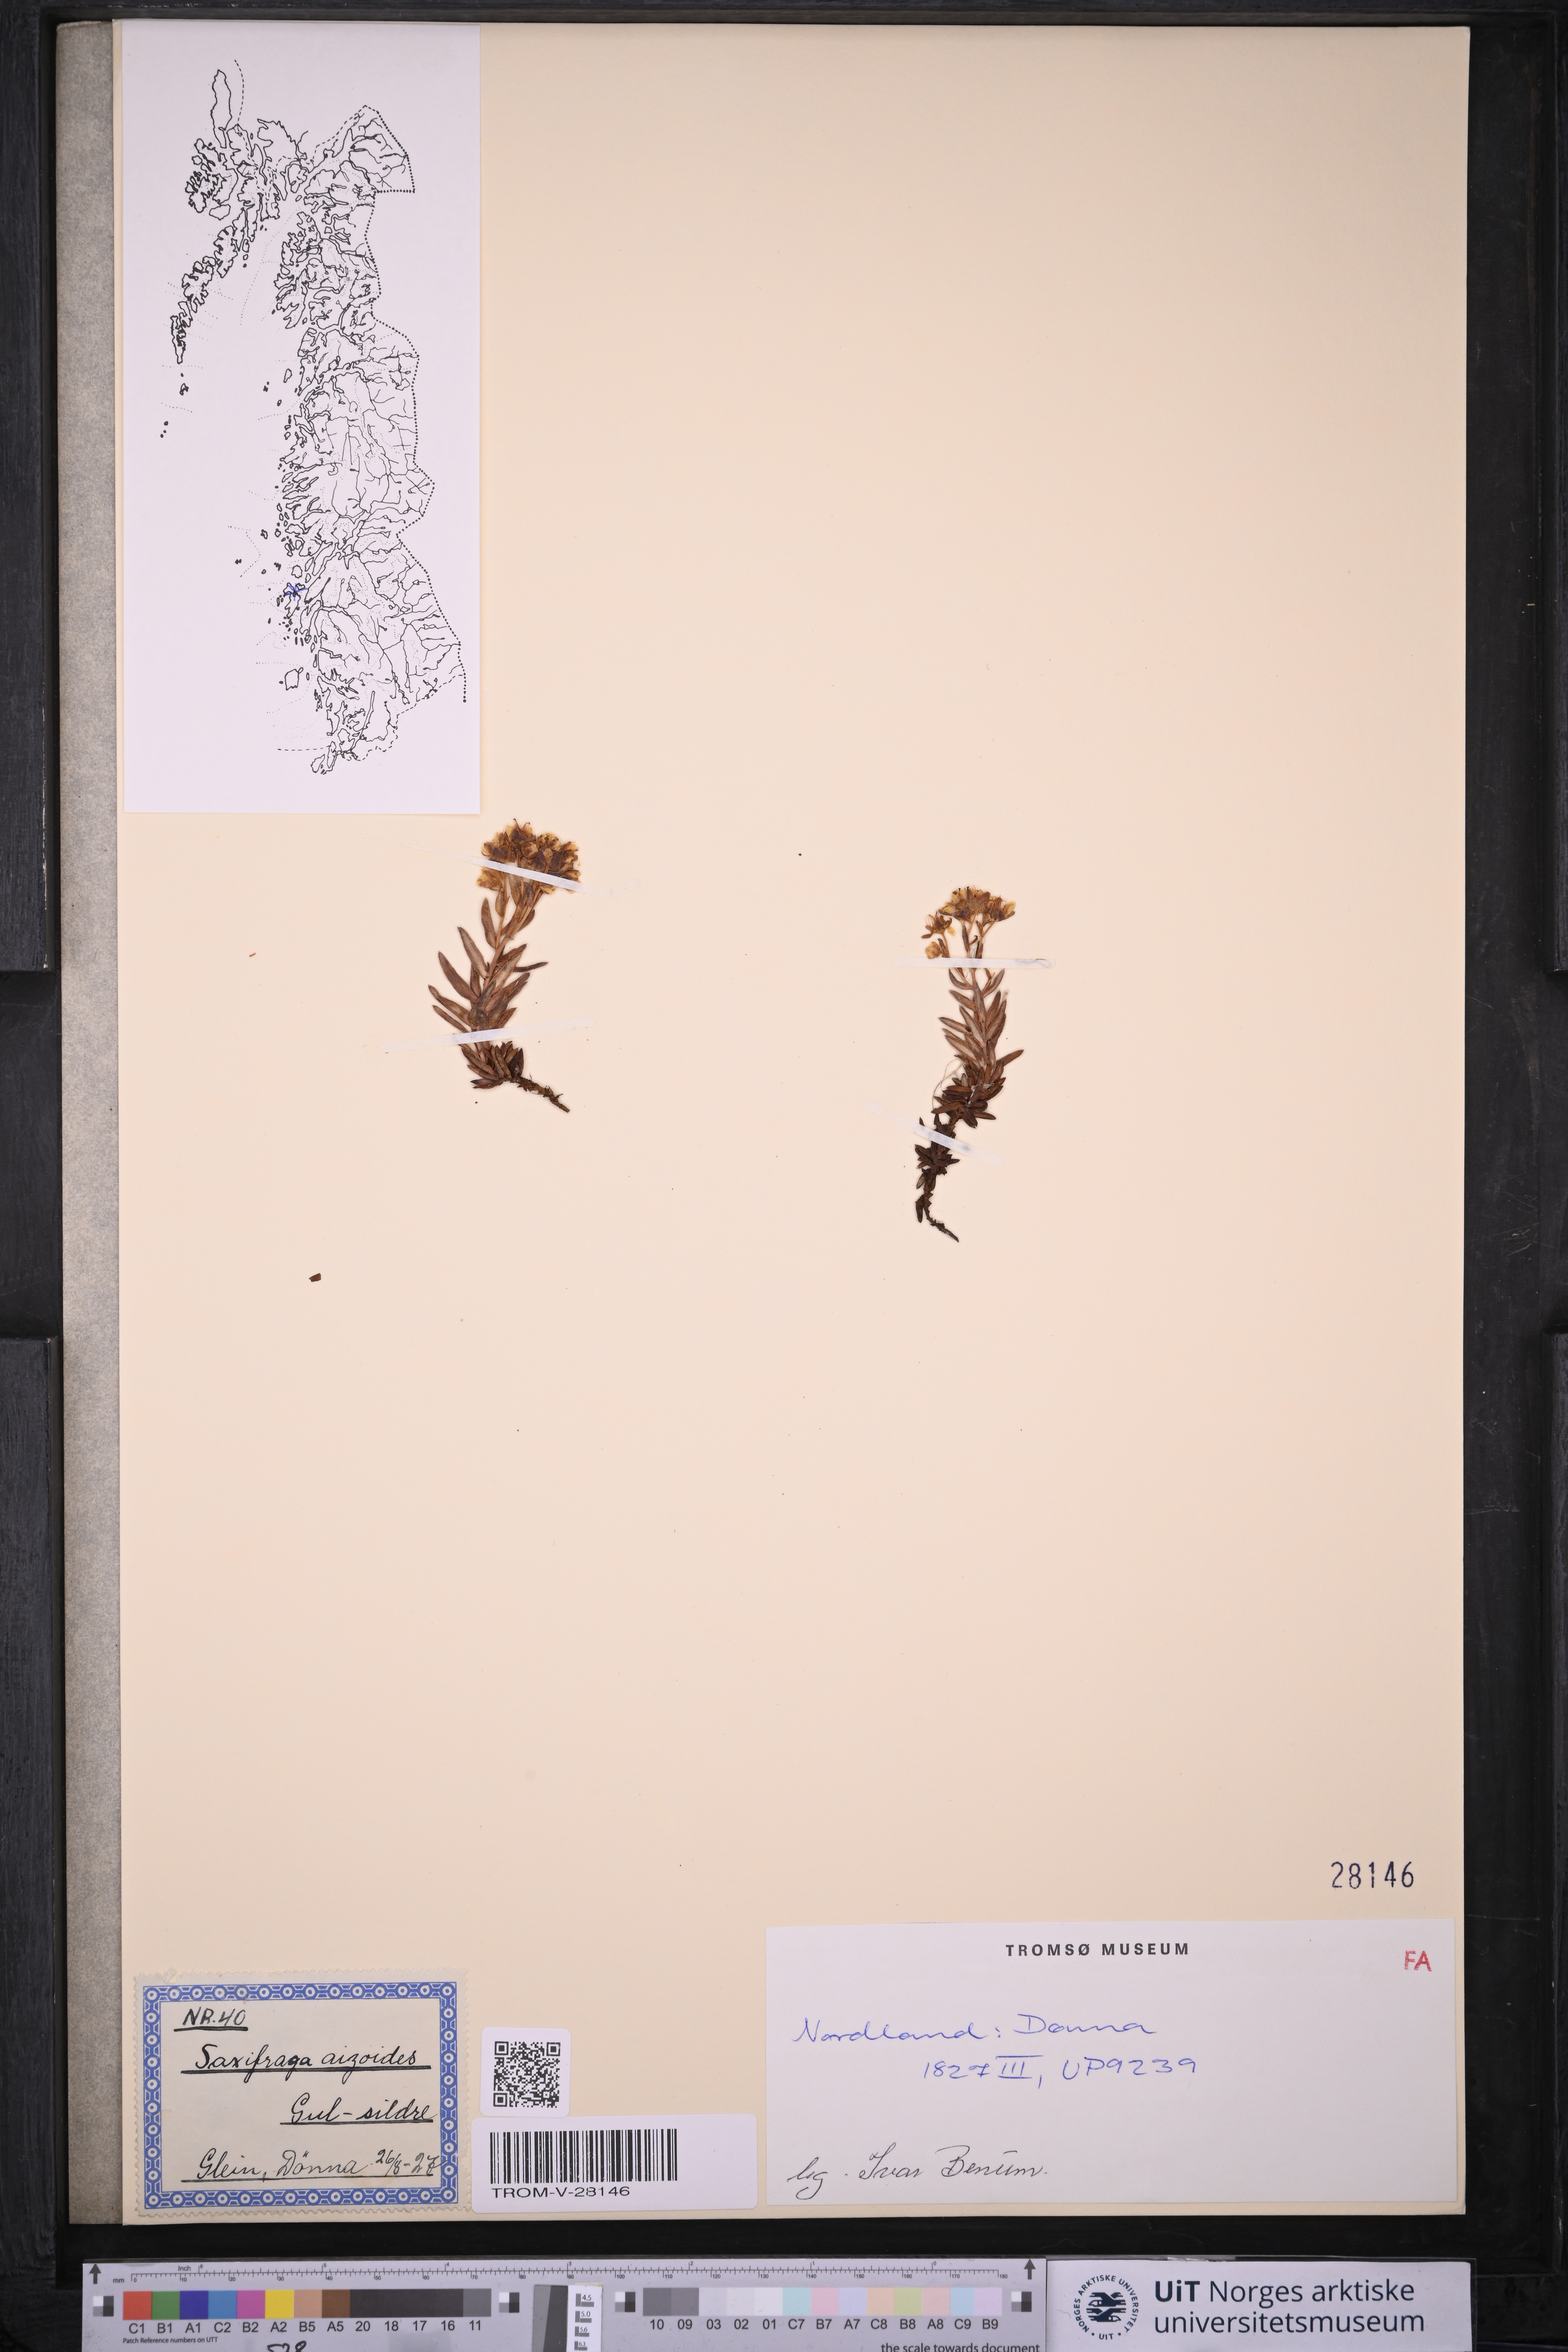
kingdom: Plantae
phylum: Tracheophyta
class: Magnoliopsida
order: Saxifragales
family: Saxifragaceae
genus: Saxifraga
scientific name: Saxifraga aizoides
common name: Yellow mountain saxifrage
